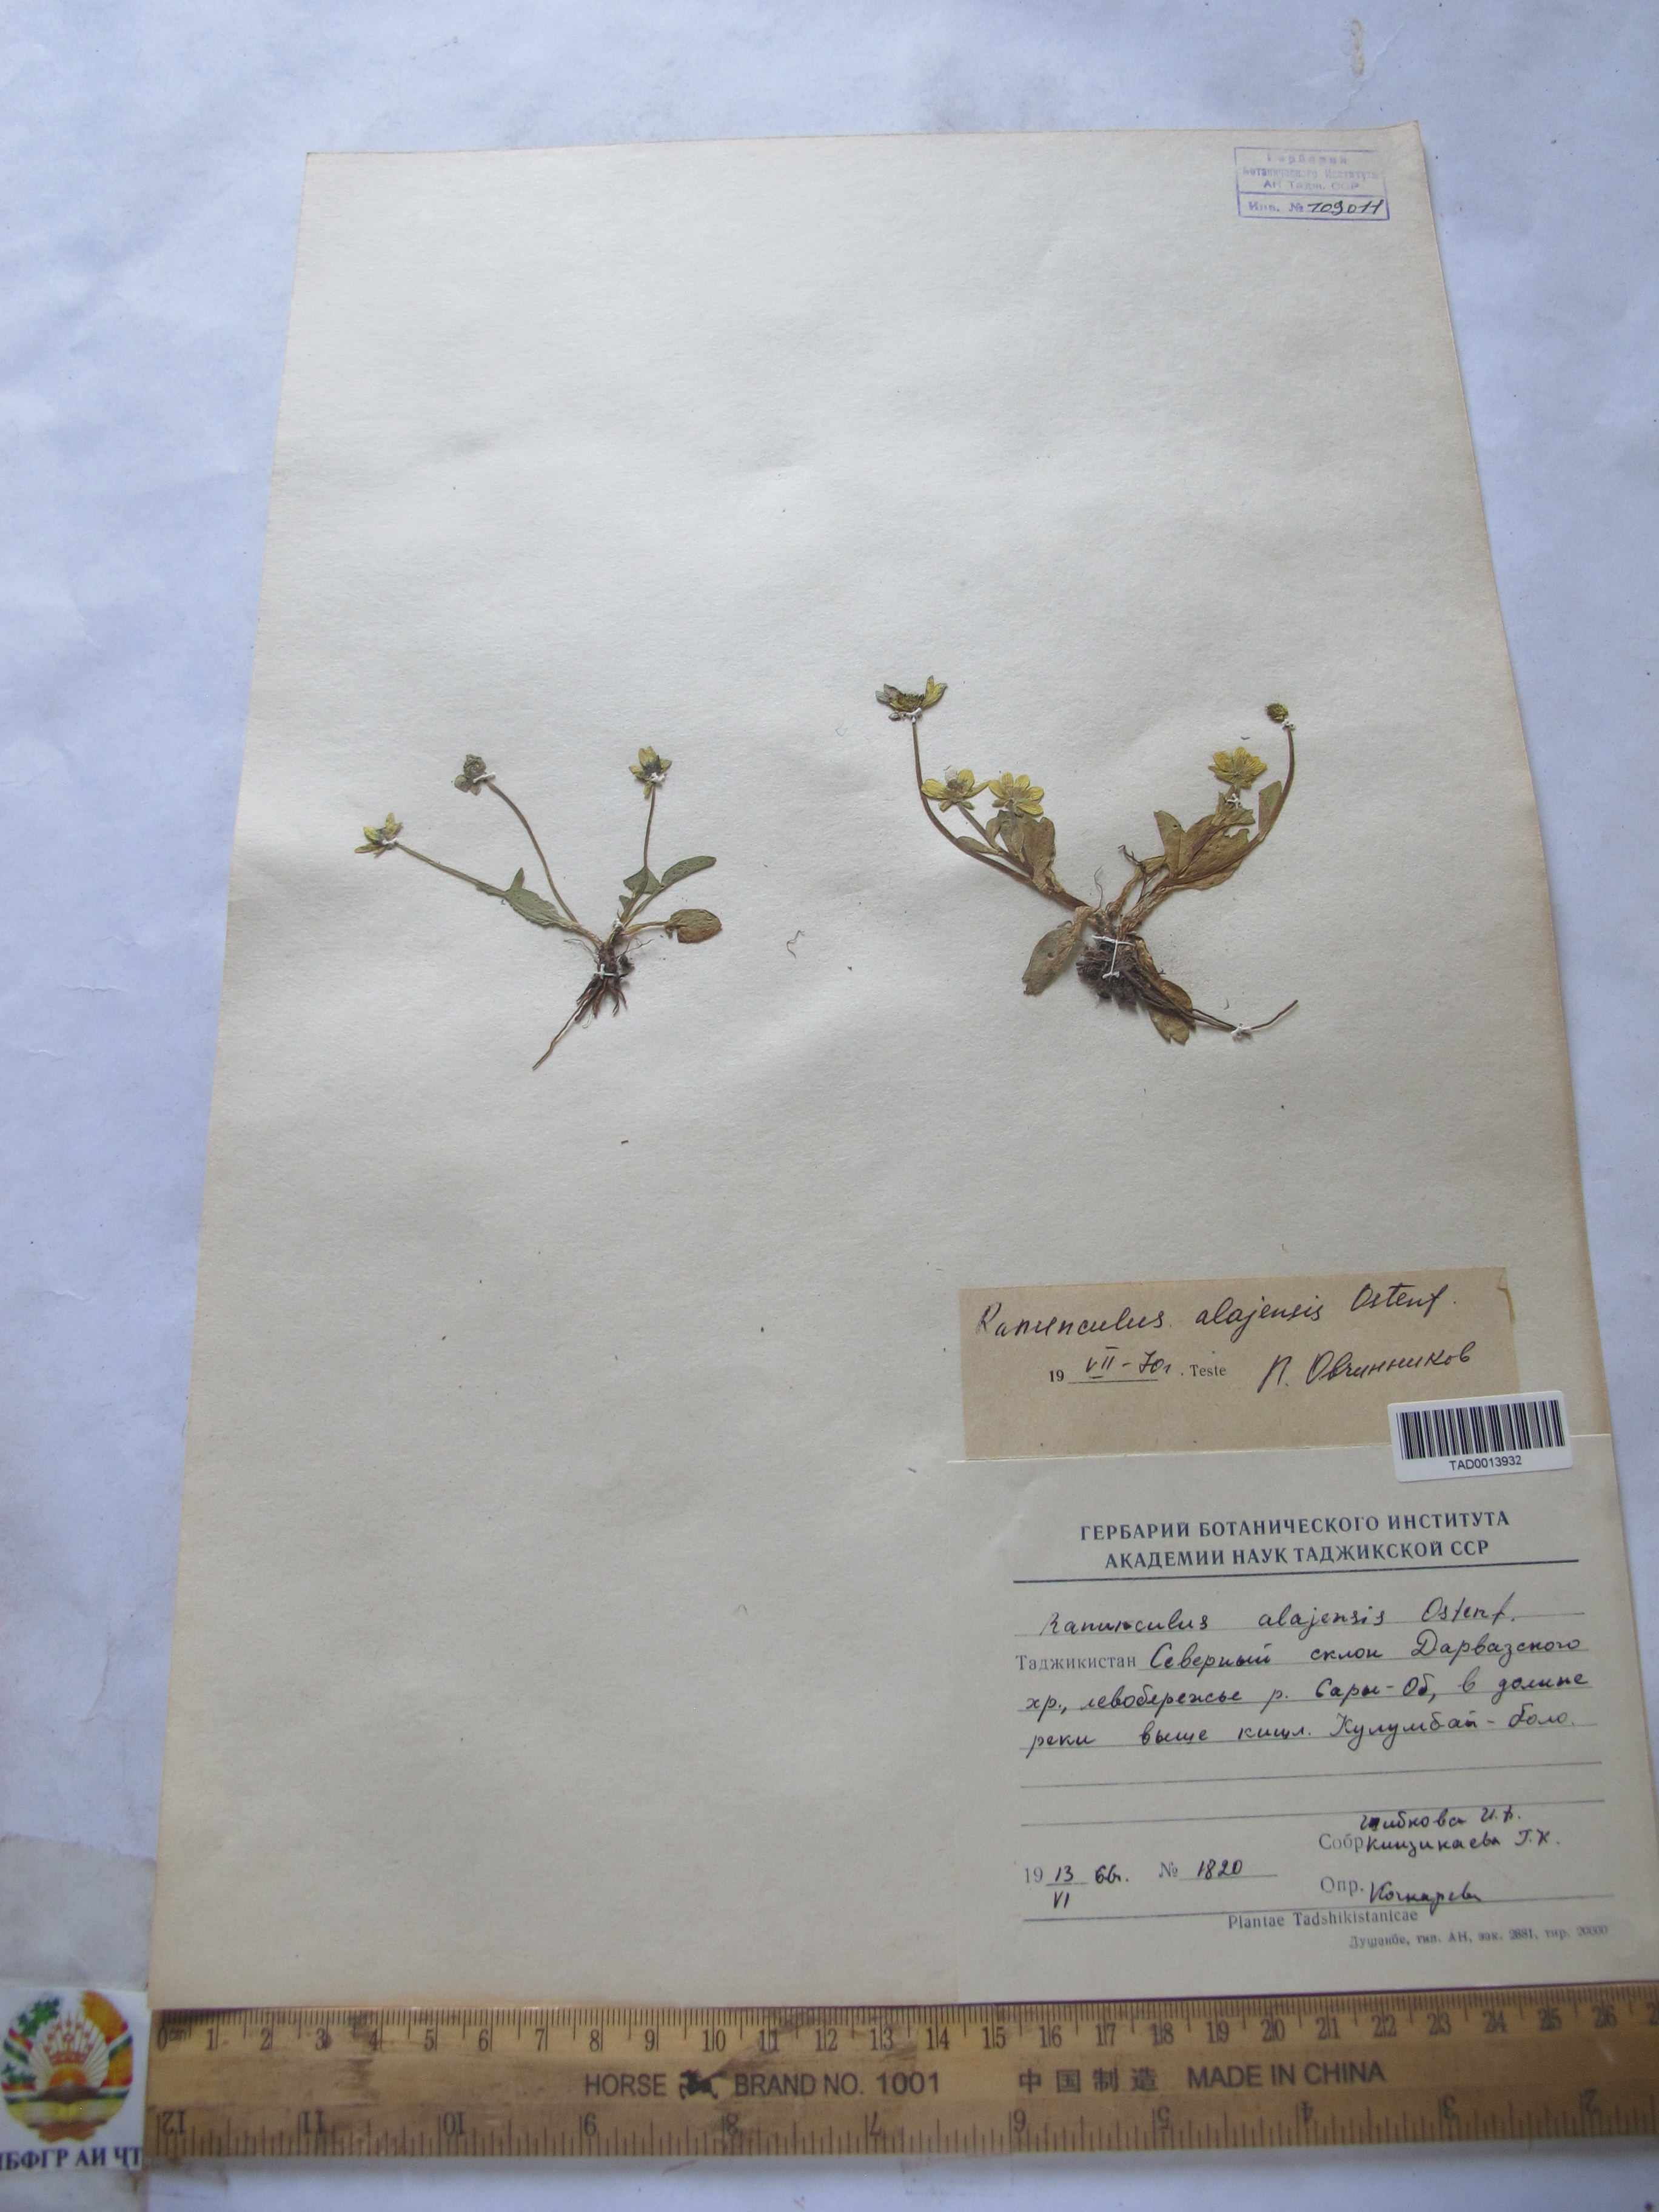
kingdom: Plantae
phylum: Tracheophyta
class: Magnoliopsida
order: Ranunculales
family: Ranunculaceae
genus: Ranunculus
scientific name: Ranunculus alaiensis
